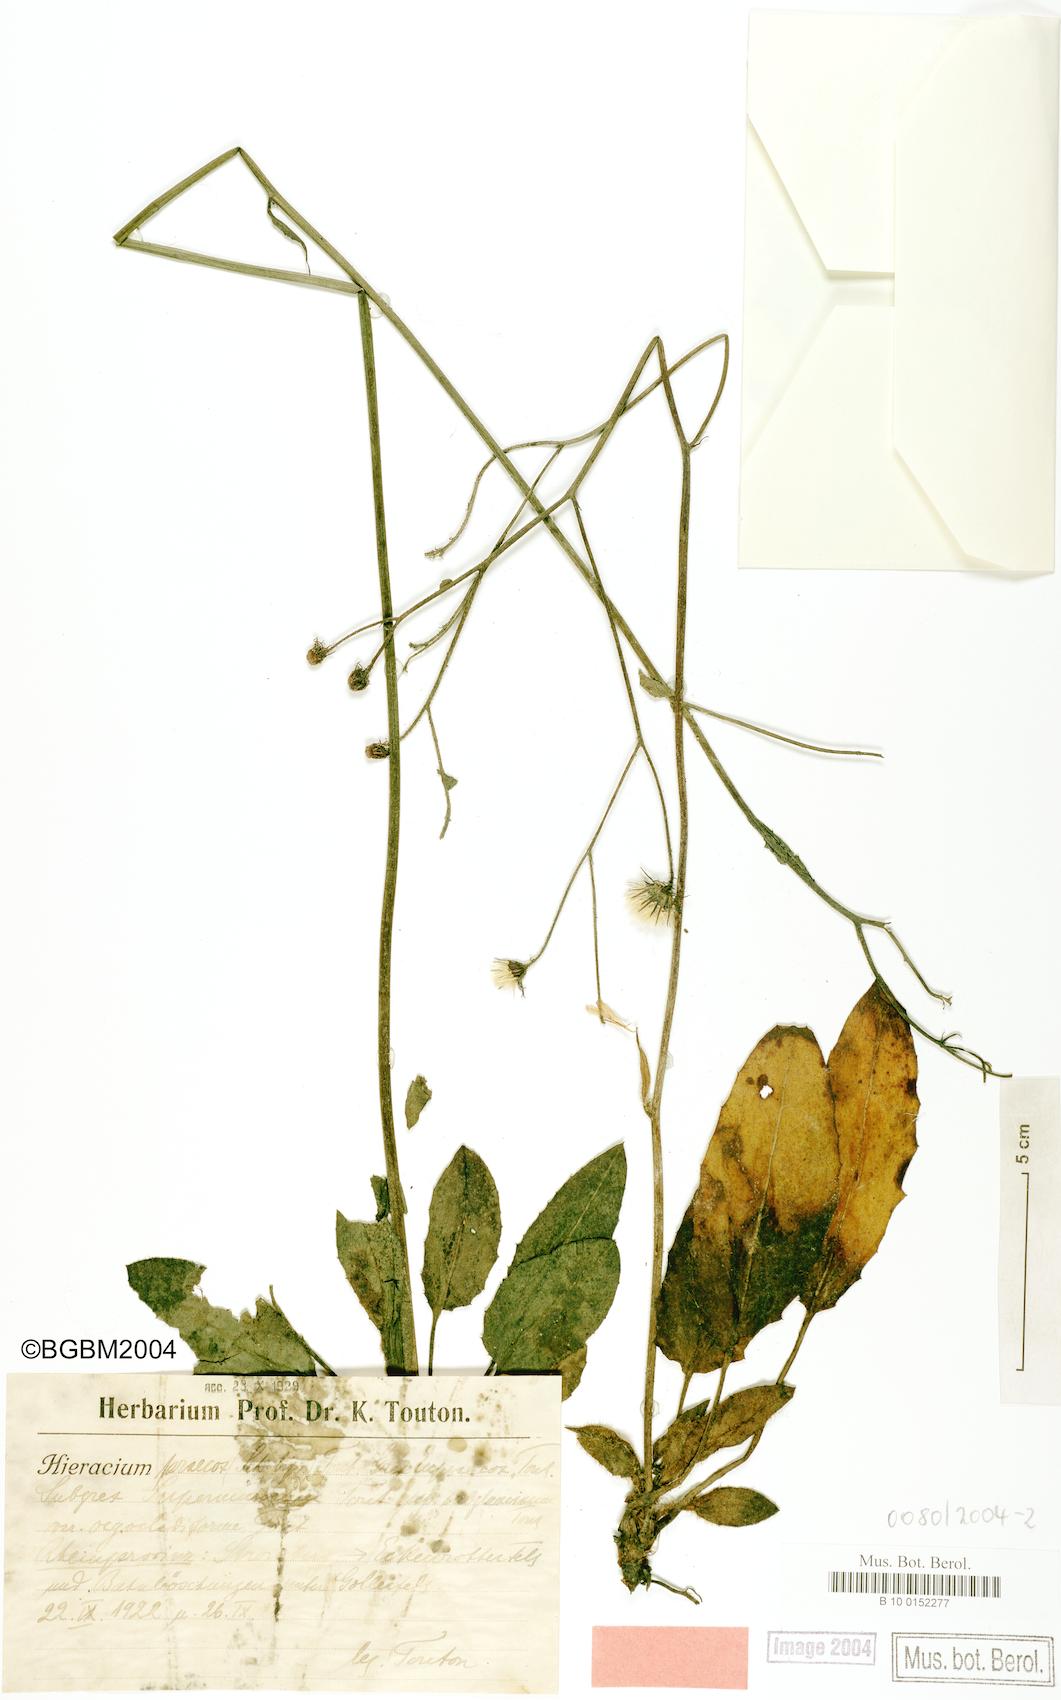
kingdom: Plantae
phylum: Tracheophyta
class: Magnoliopsida
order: Asterales
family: Asteraceae
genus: Hieracium
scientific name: Hieracium praecox
